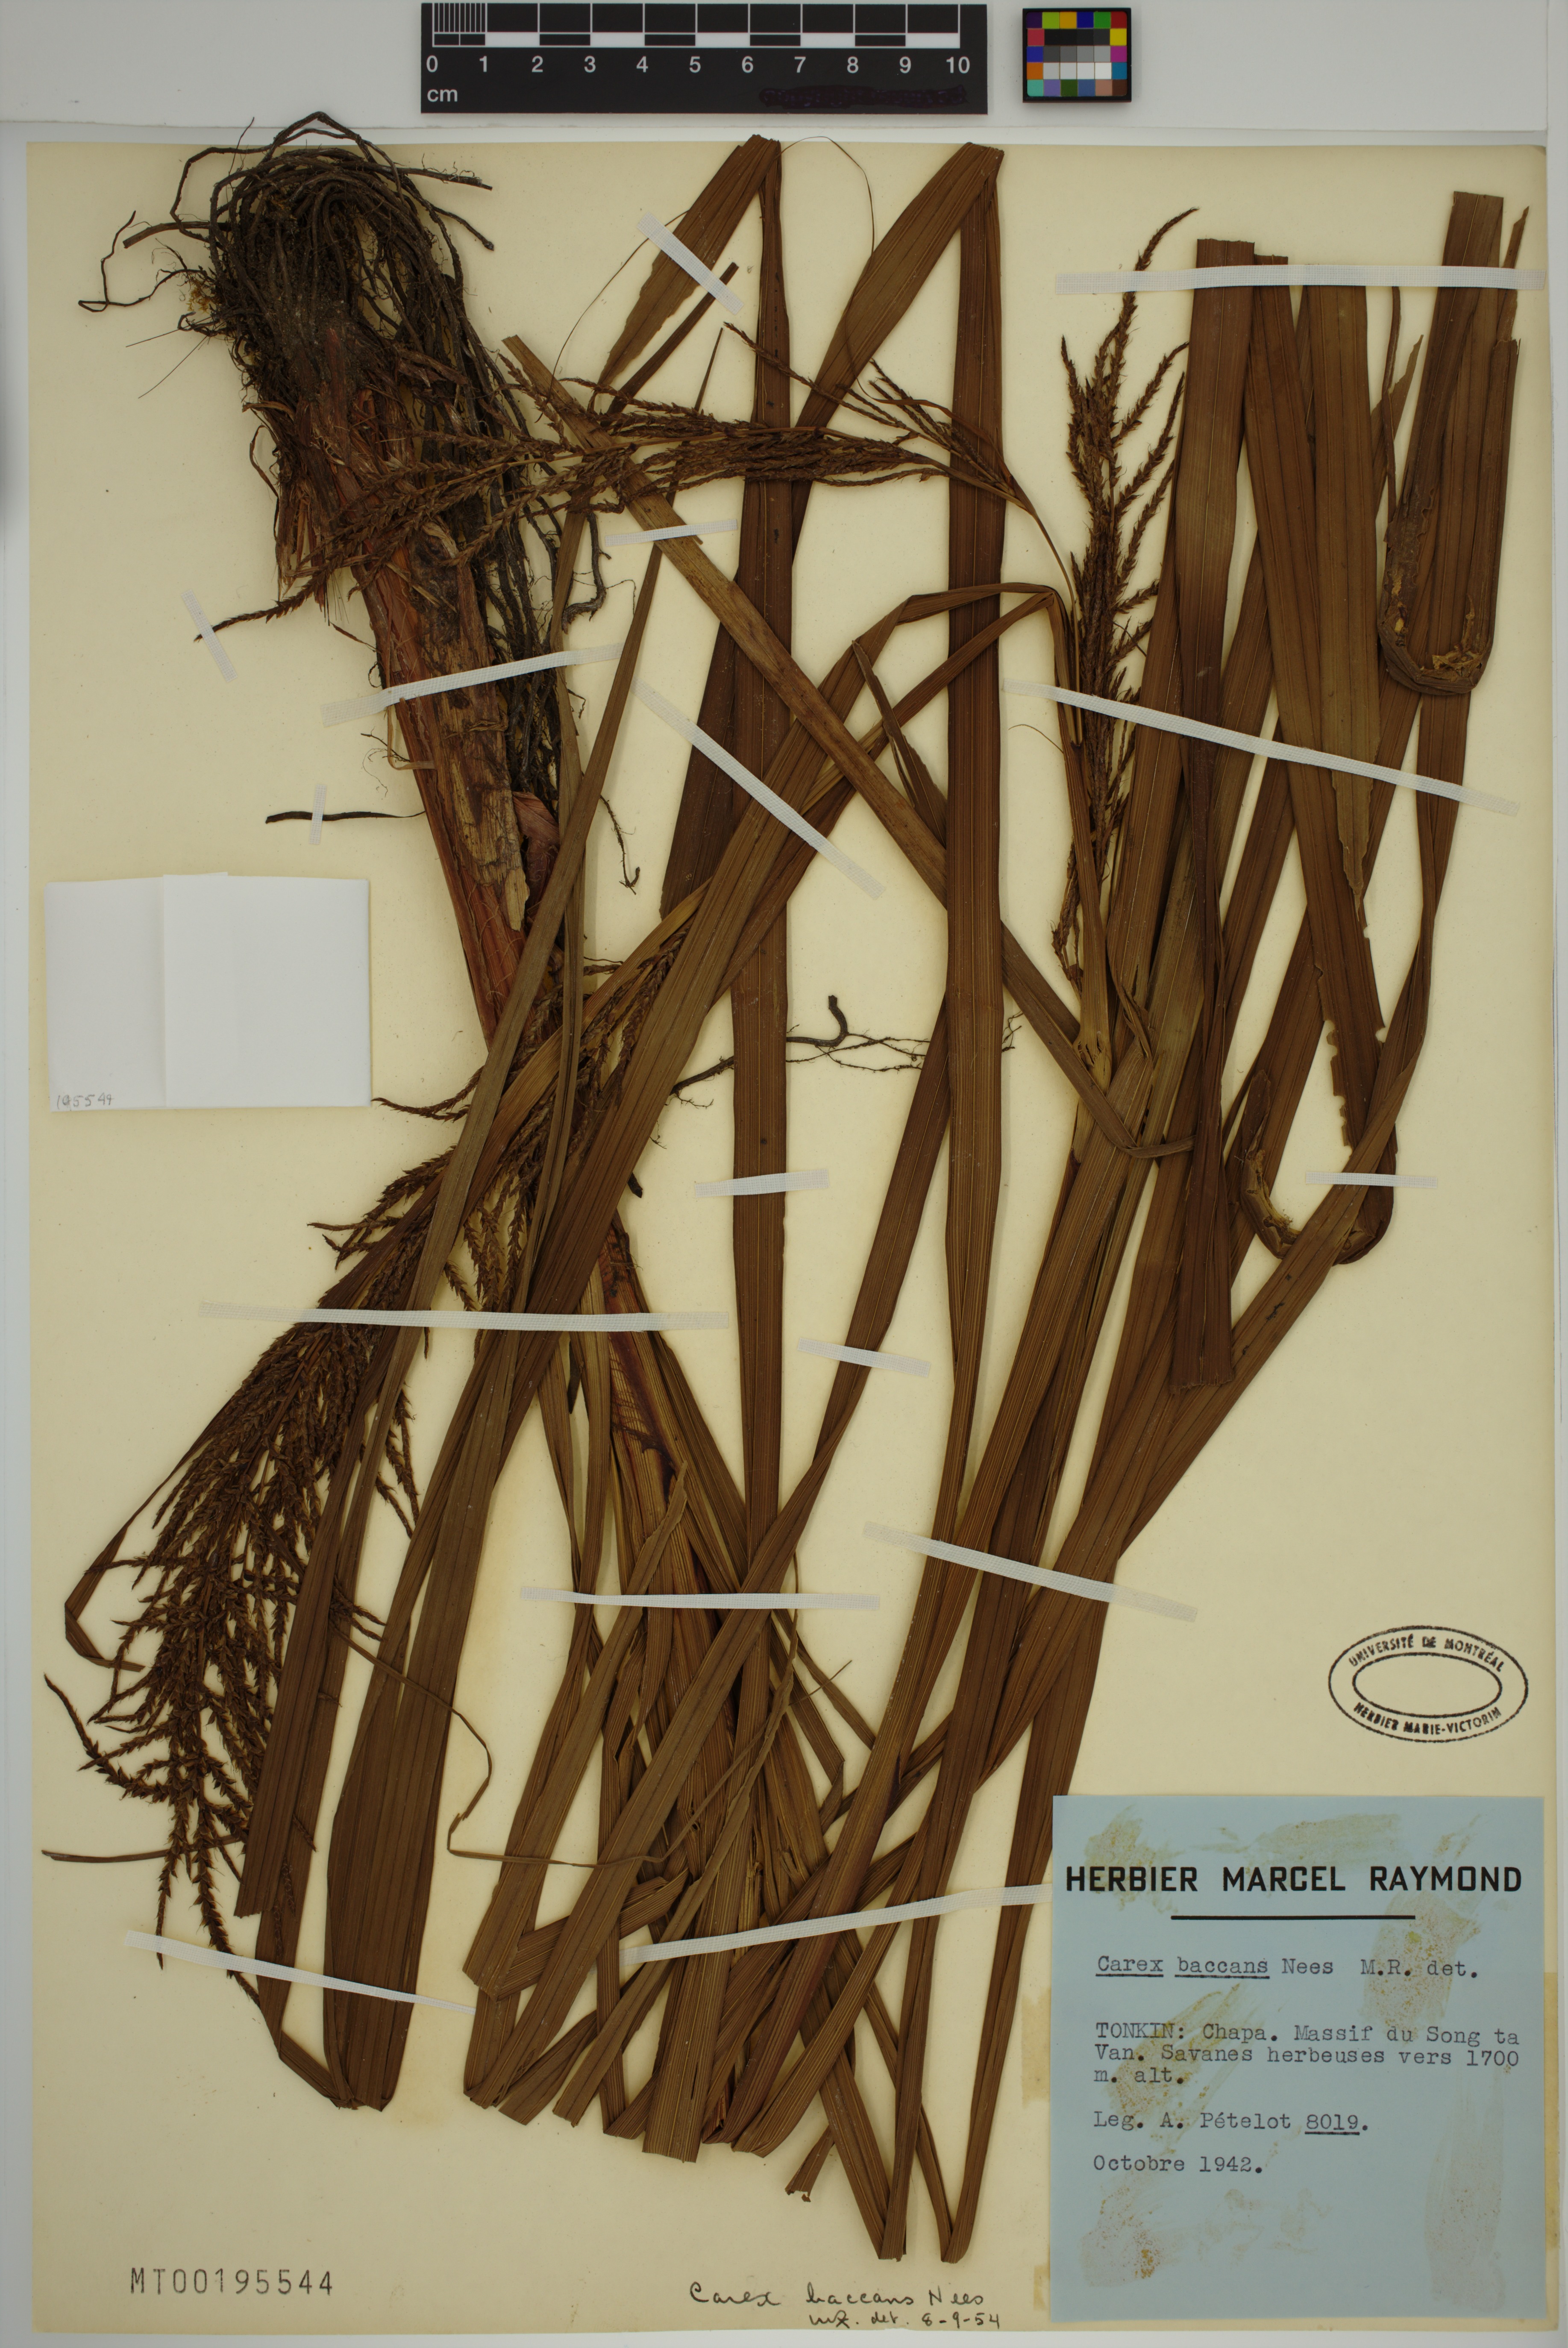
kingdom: Plantae
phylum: Tracheophyta
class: Liliopsida
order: Poales
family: Cyperaceae
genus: Carex
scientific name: Carex baccans
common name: Crimson seeded sedge
